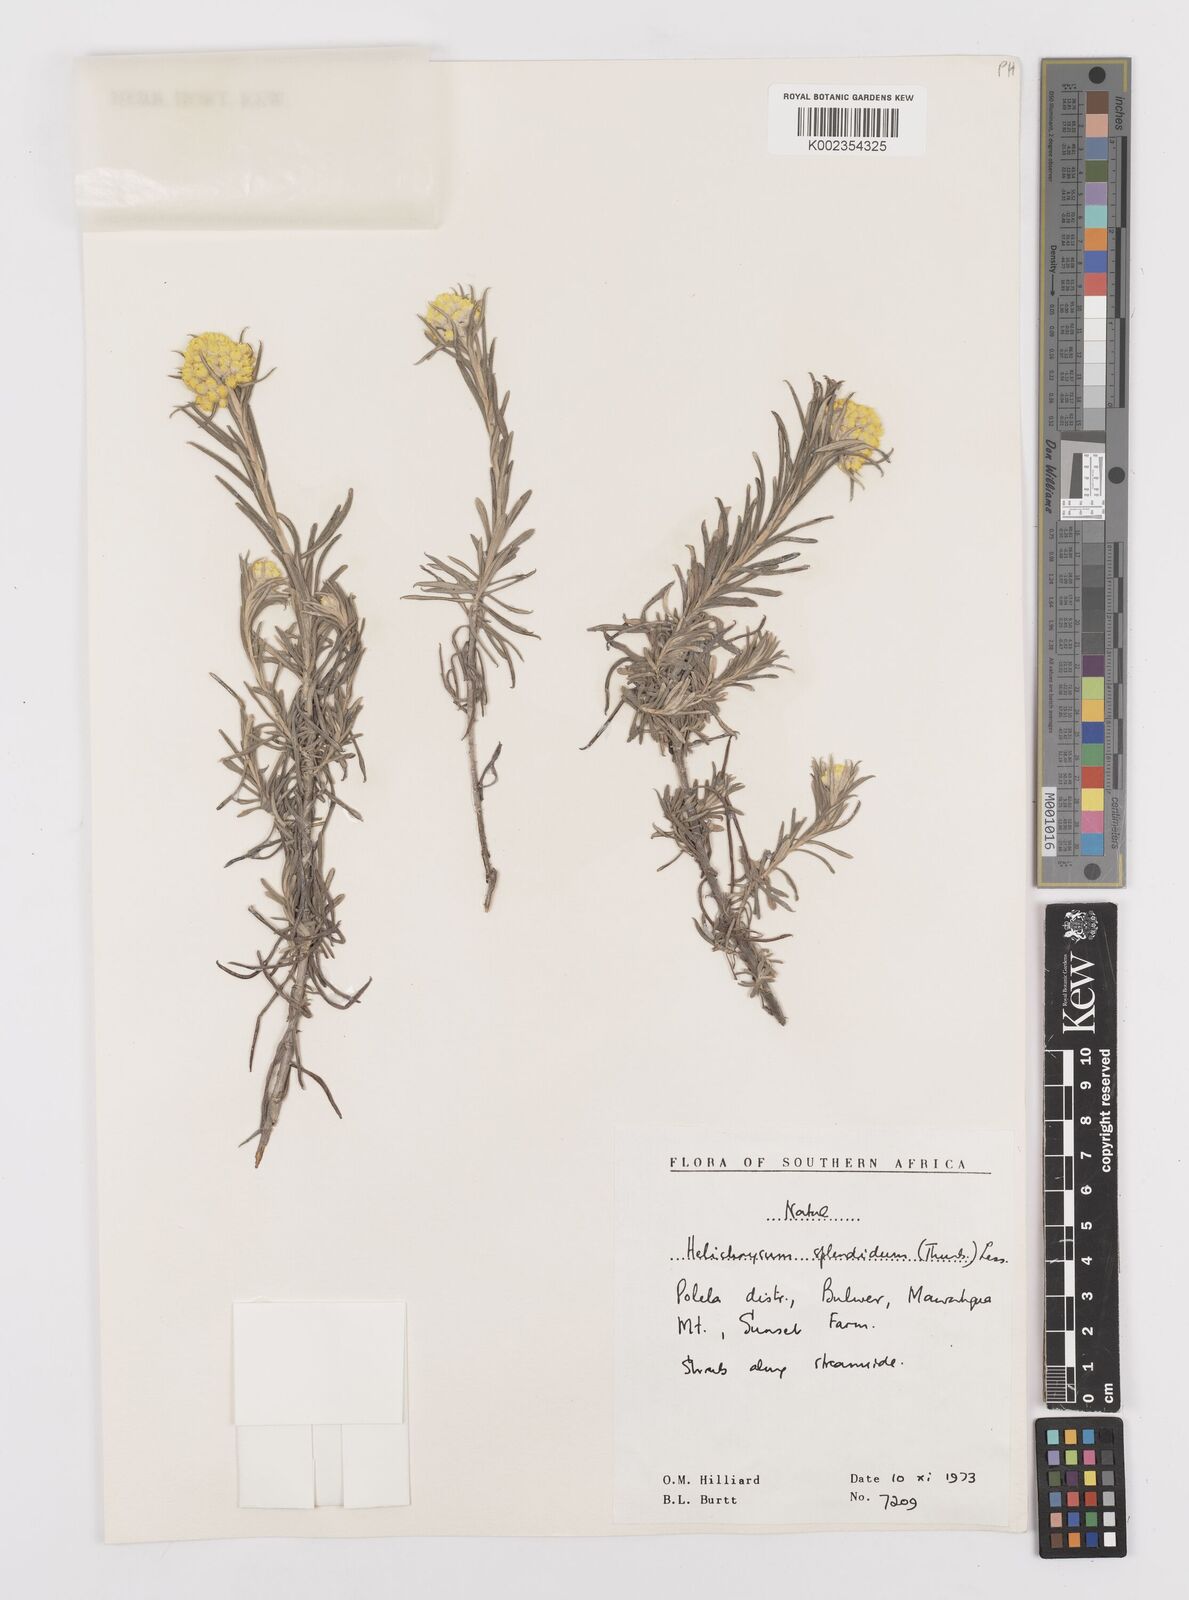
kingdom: Plantae
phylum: Tracheophyta
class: Magnoliopsida
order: Asterales
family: Asteraceae
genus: Helichrysum
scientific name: Helichrysum splendidum
